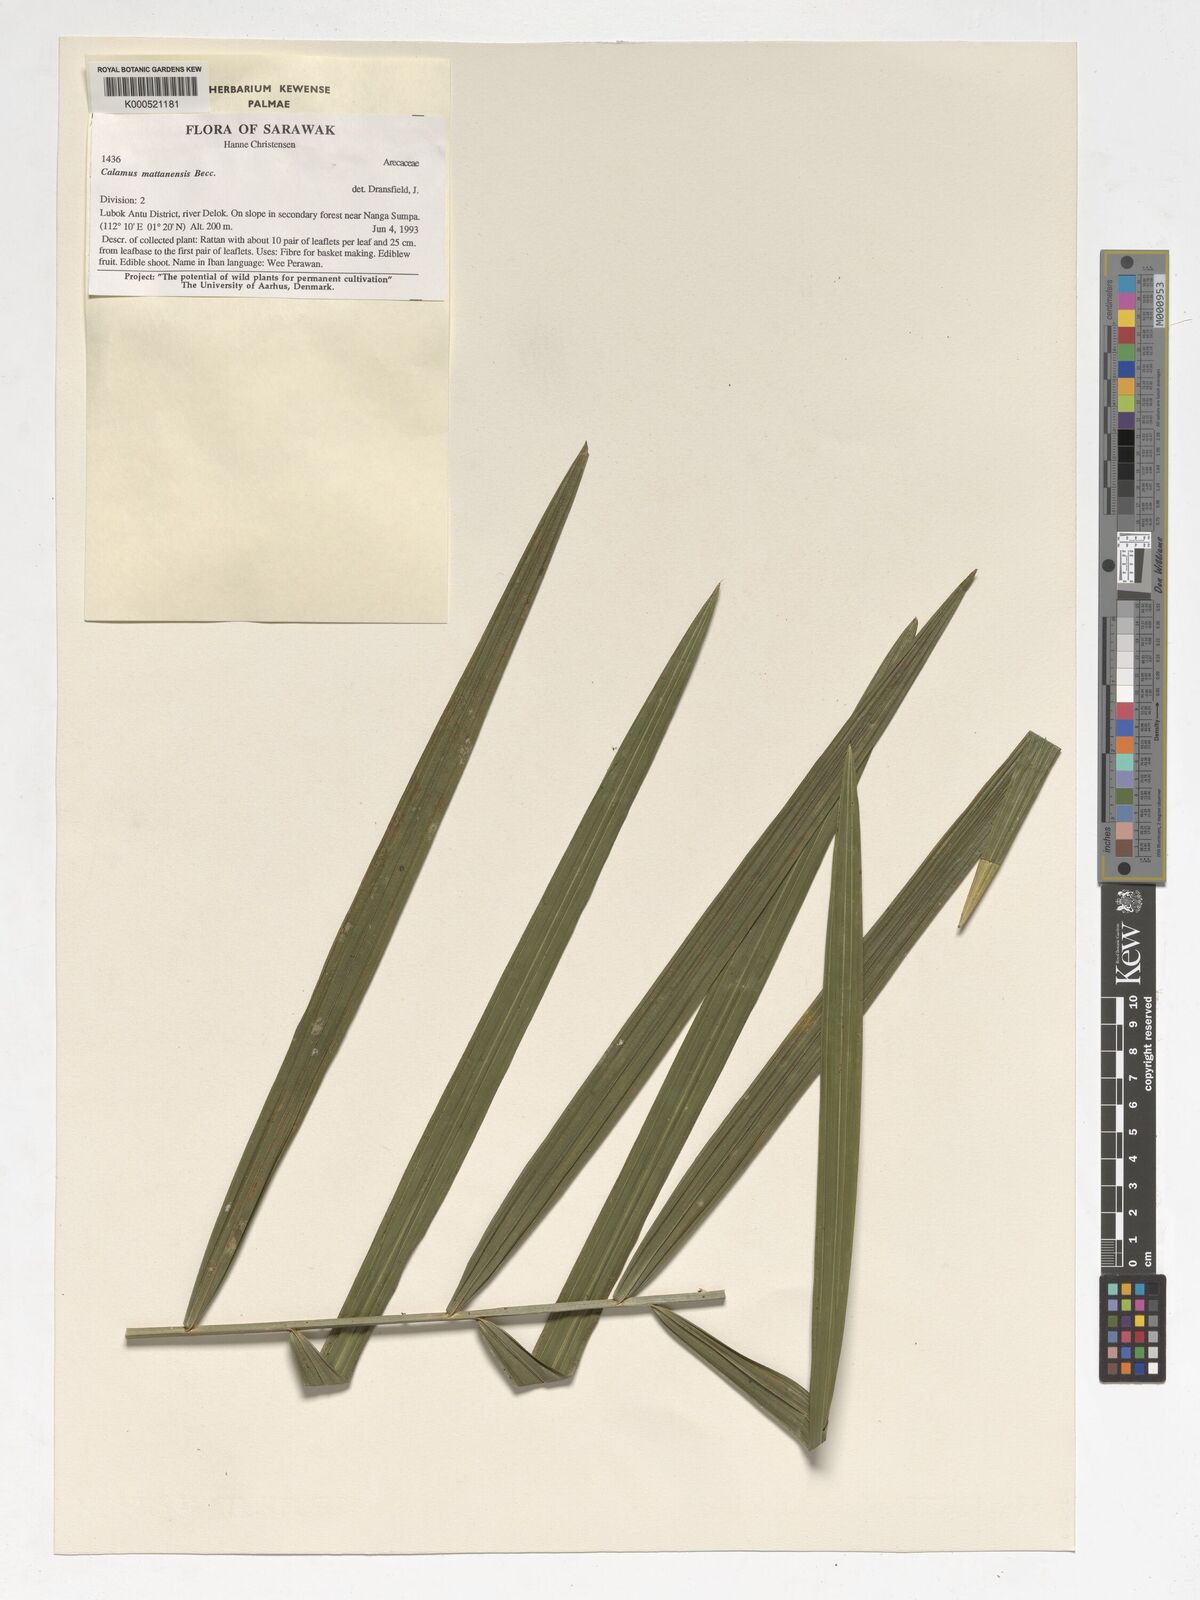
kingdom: Plantae
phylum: Tracheophyta
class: Liliopsida
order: Arecales
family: Arecaceae
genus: Calamus
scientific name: Calamus
